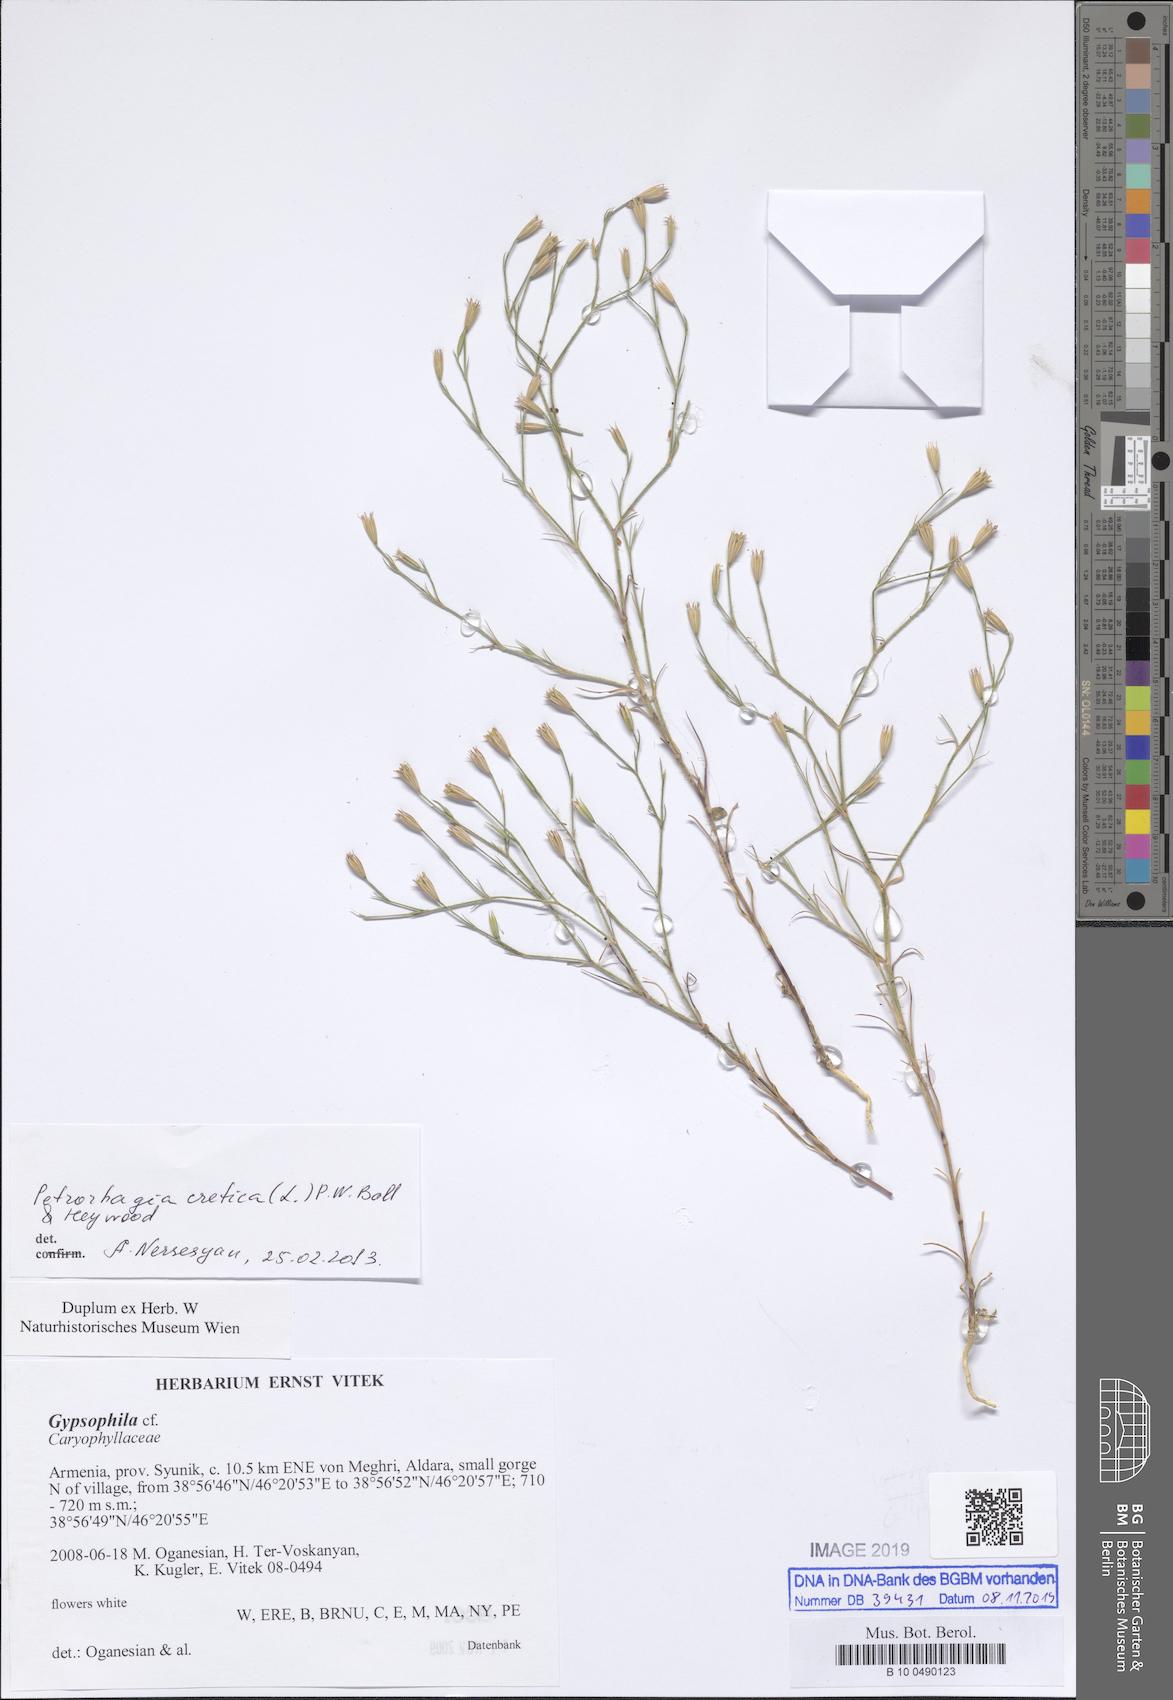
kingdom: Plantae
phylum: Tracheophyta
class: Magnoliopsida
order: Caryophyllales
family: Caryophyllaceae
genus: Petrorhagia
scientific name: Petrorhagia cretica
